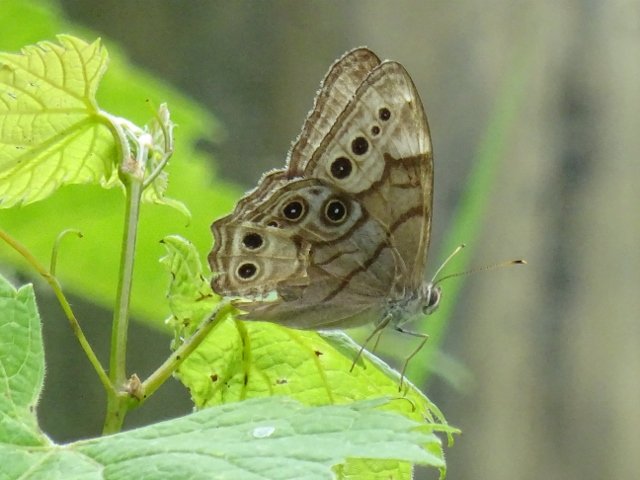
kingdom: Animalia
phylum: Arthropoda
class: Insecta
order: Lepidoptera
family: Nymphalidae
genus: Lethe
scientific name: Lethe anthedon
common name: Northern Pearly-Eye
